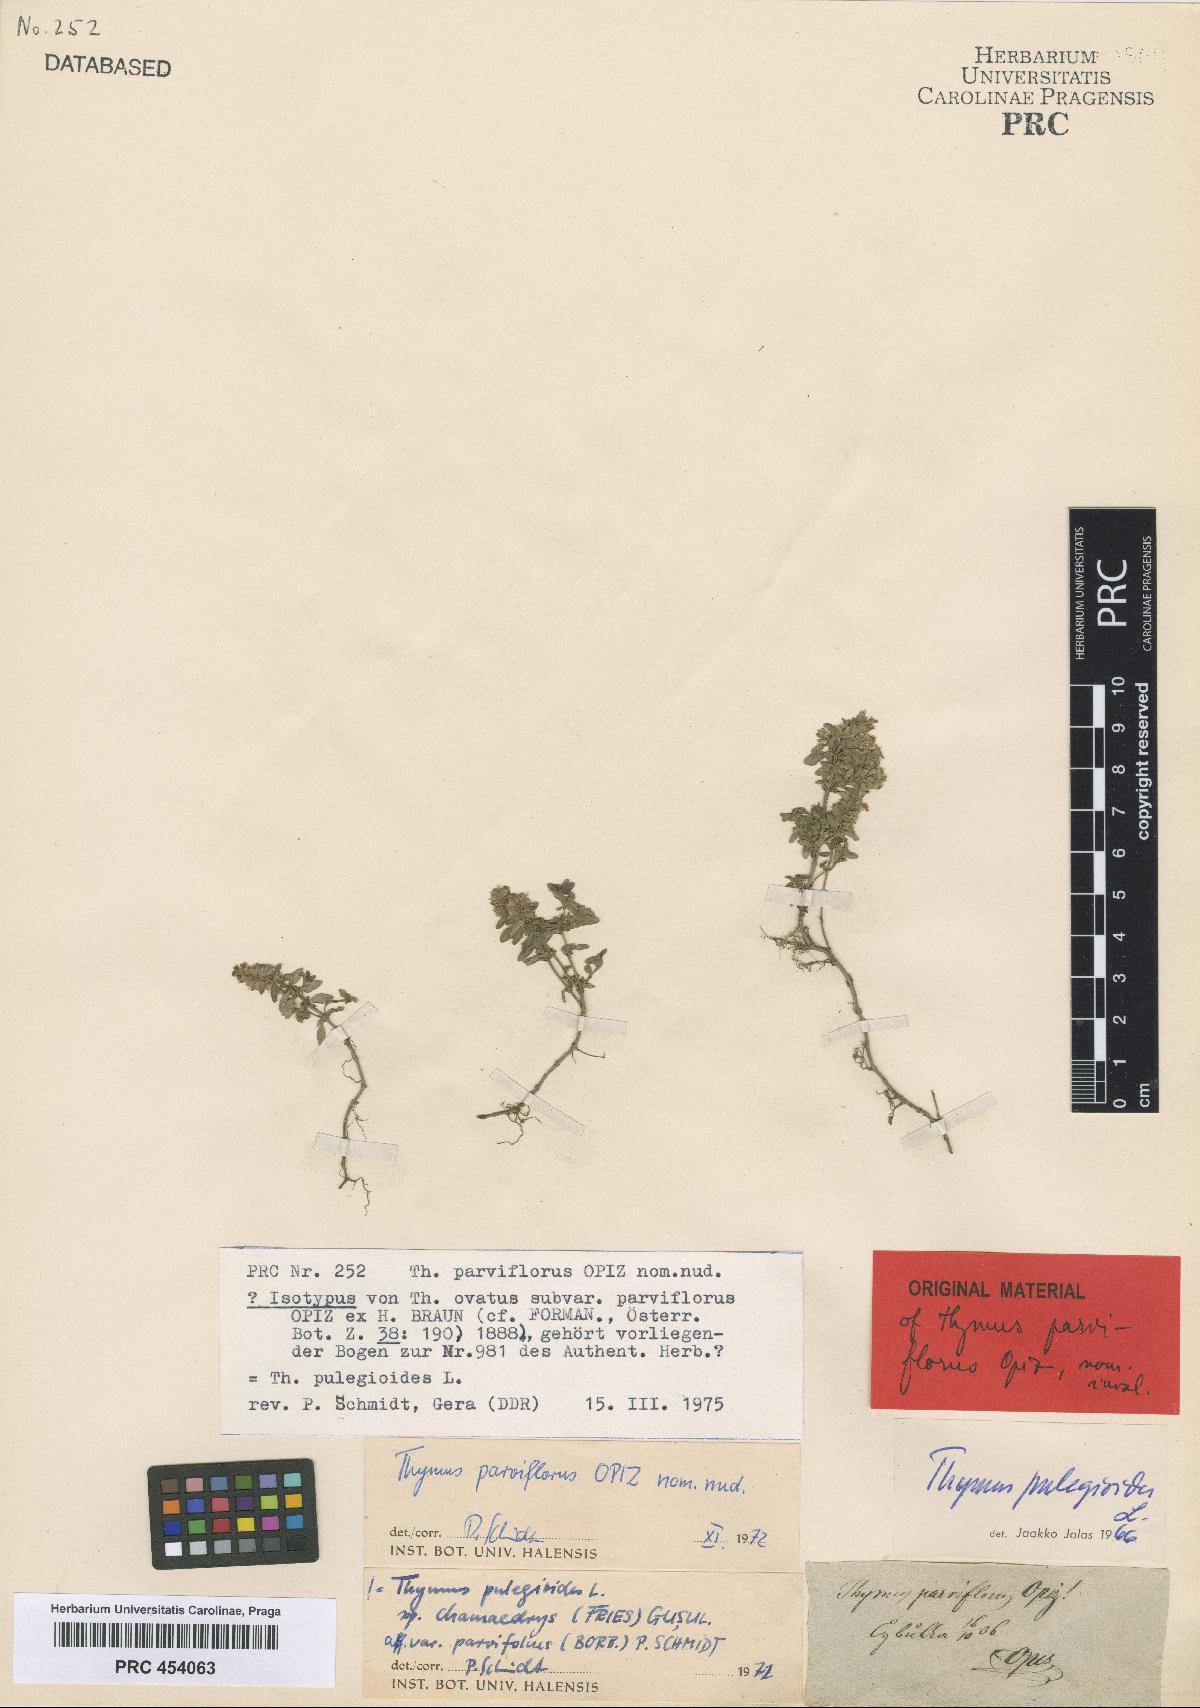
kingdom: Plantae
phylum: Tracheophyta
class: Magnoliopsida
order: Lamiales
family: Lamiaceae
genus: Thymus
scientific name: Thymus pulegioides
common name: Large thyme
